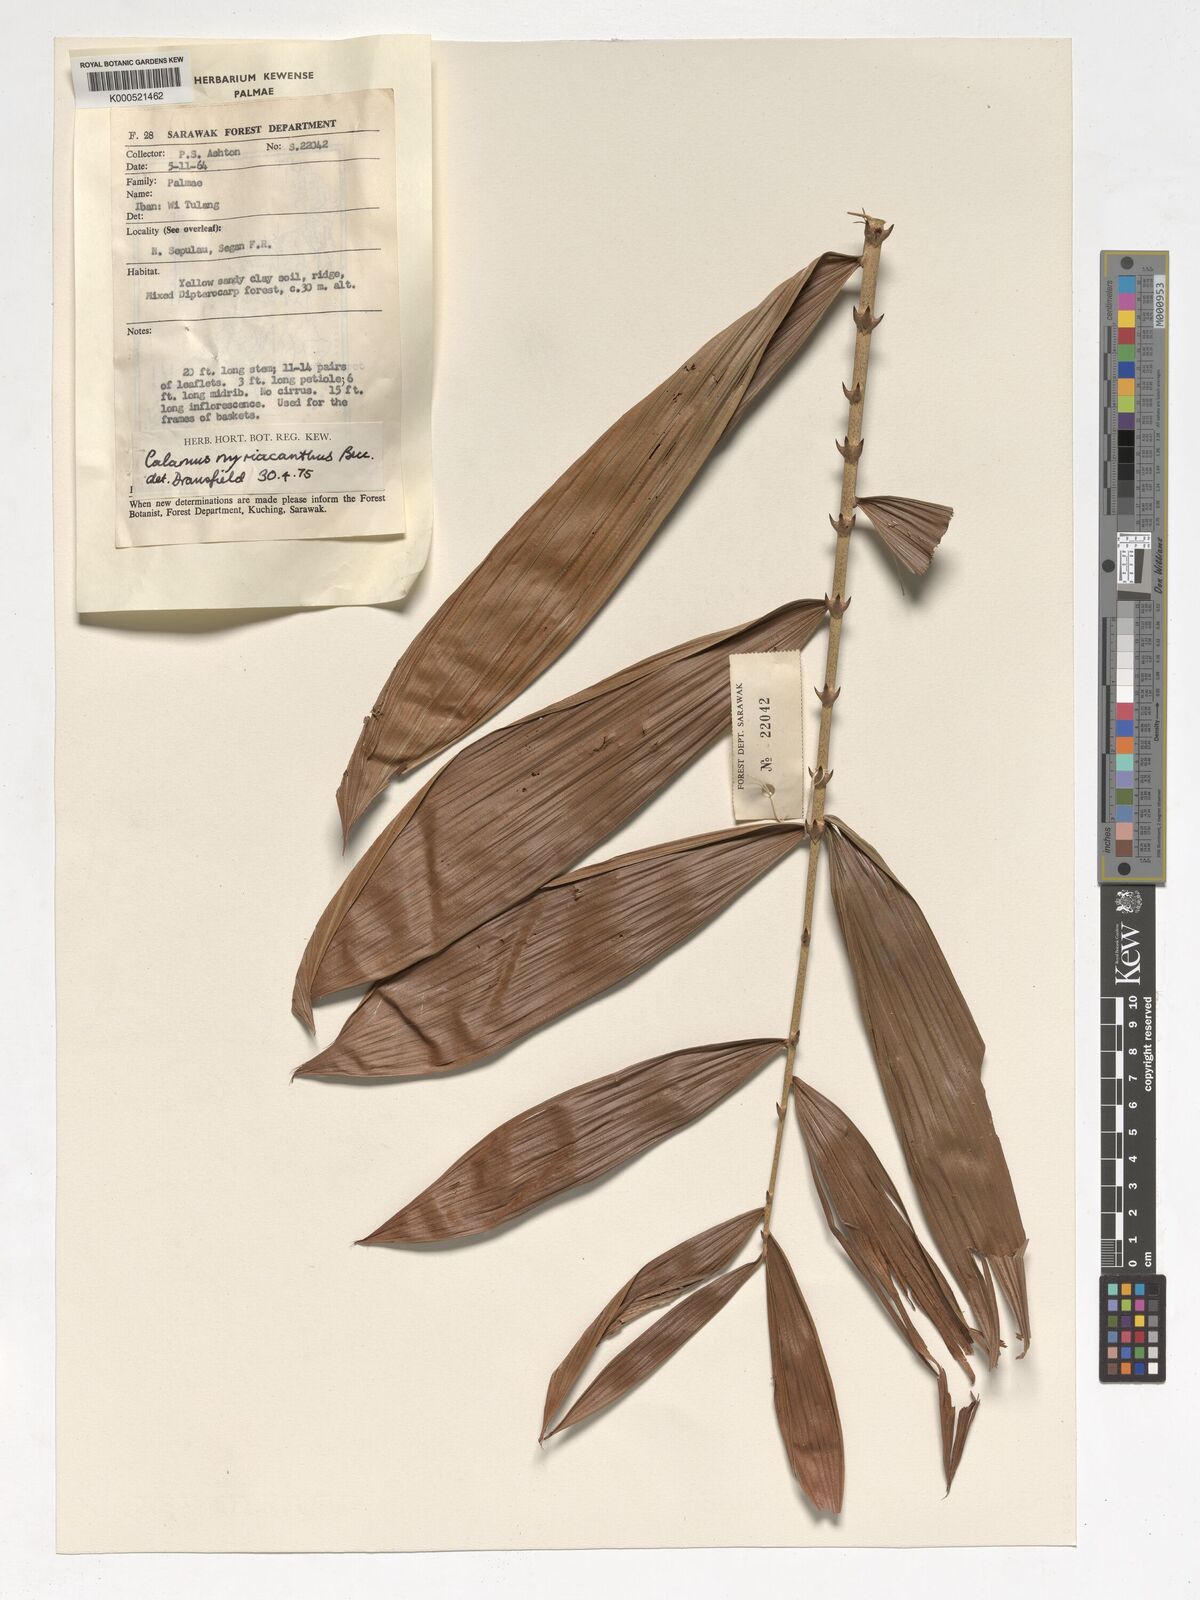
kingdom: Plantae
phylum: Tracheophyta
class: Liliopsida
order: Arecales
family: Arecaceae
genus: Calamus
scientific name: Calamus myriacanthus
